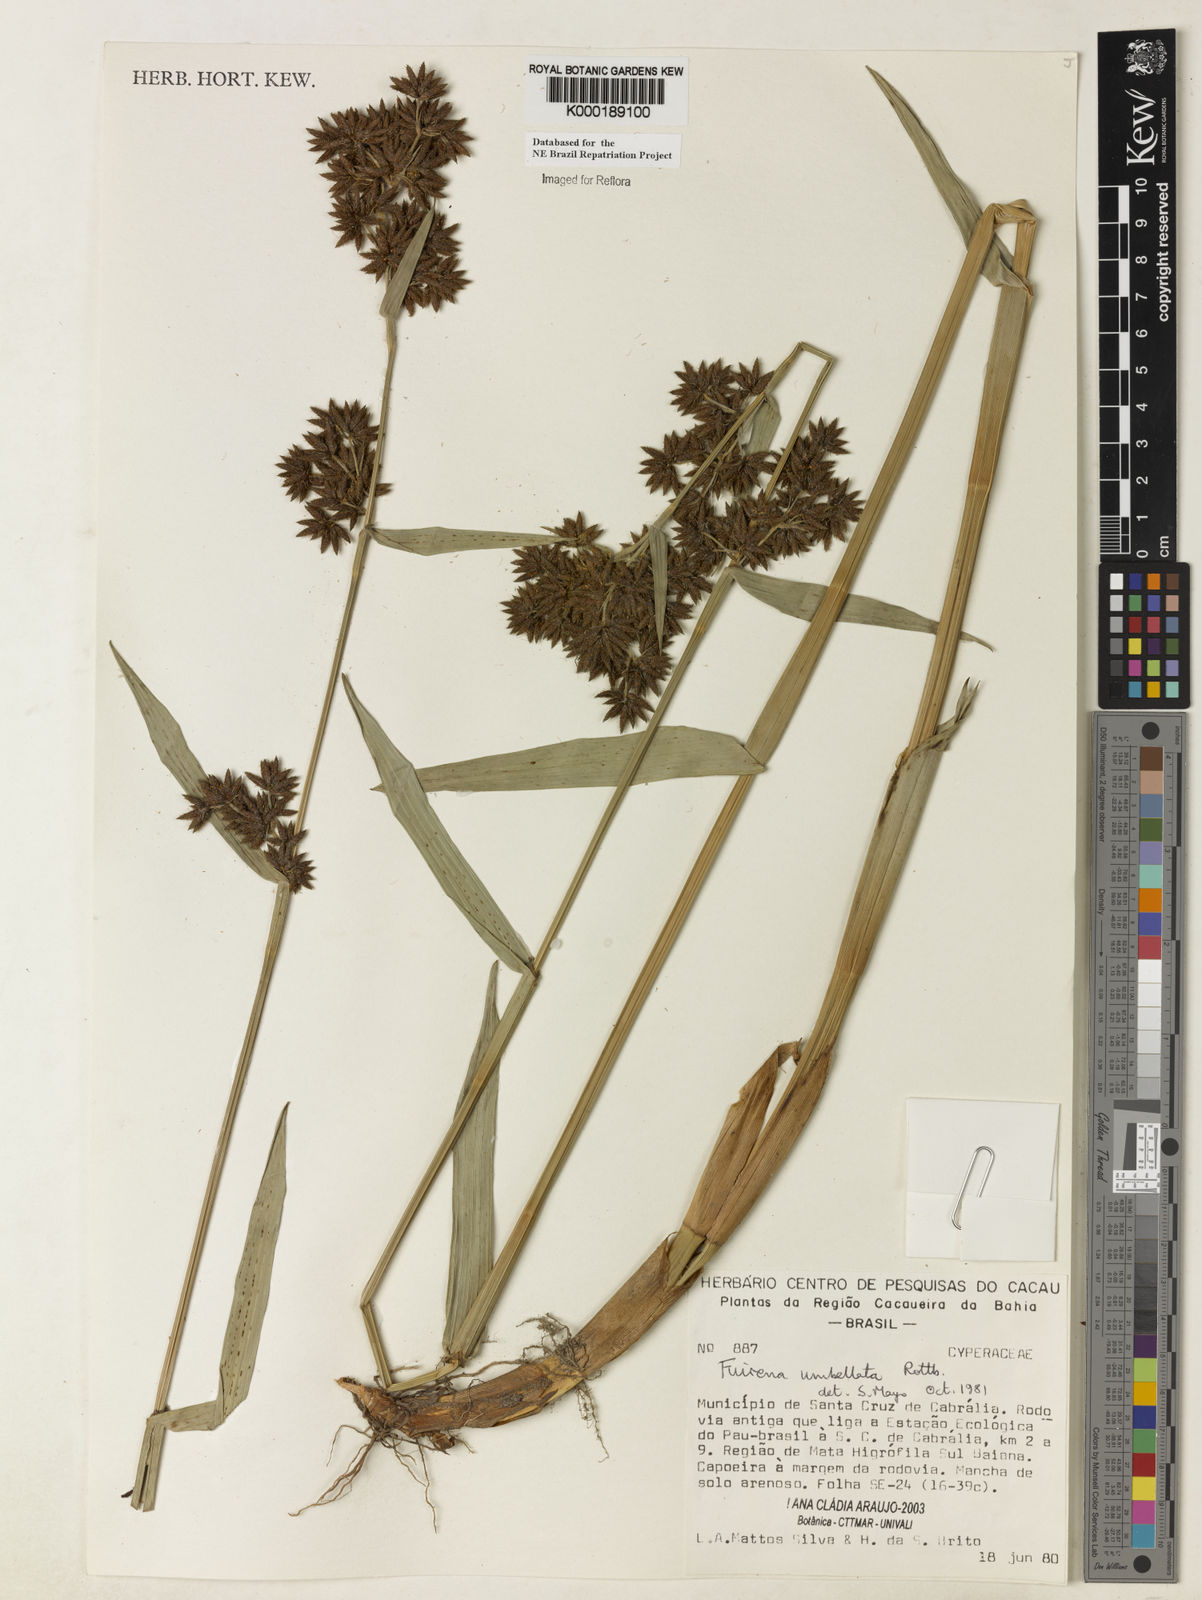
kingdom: Plantae
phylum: Tracheophyta
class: Liliopsida
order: Poales
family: Cyperaceae
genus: Fuirena
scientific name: Fuirena umbellata
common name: Yefen
